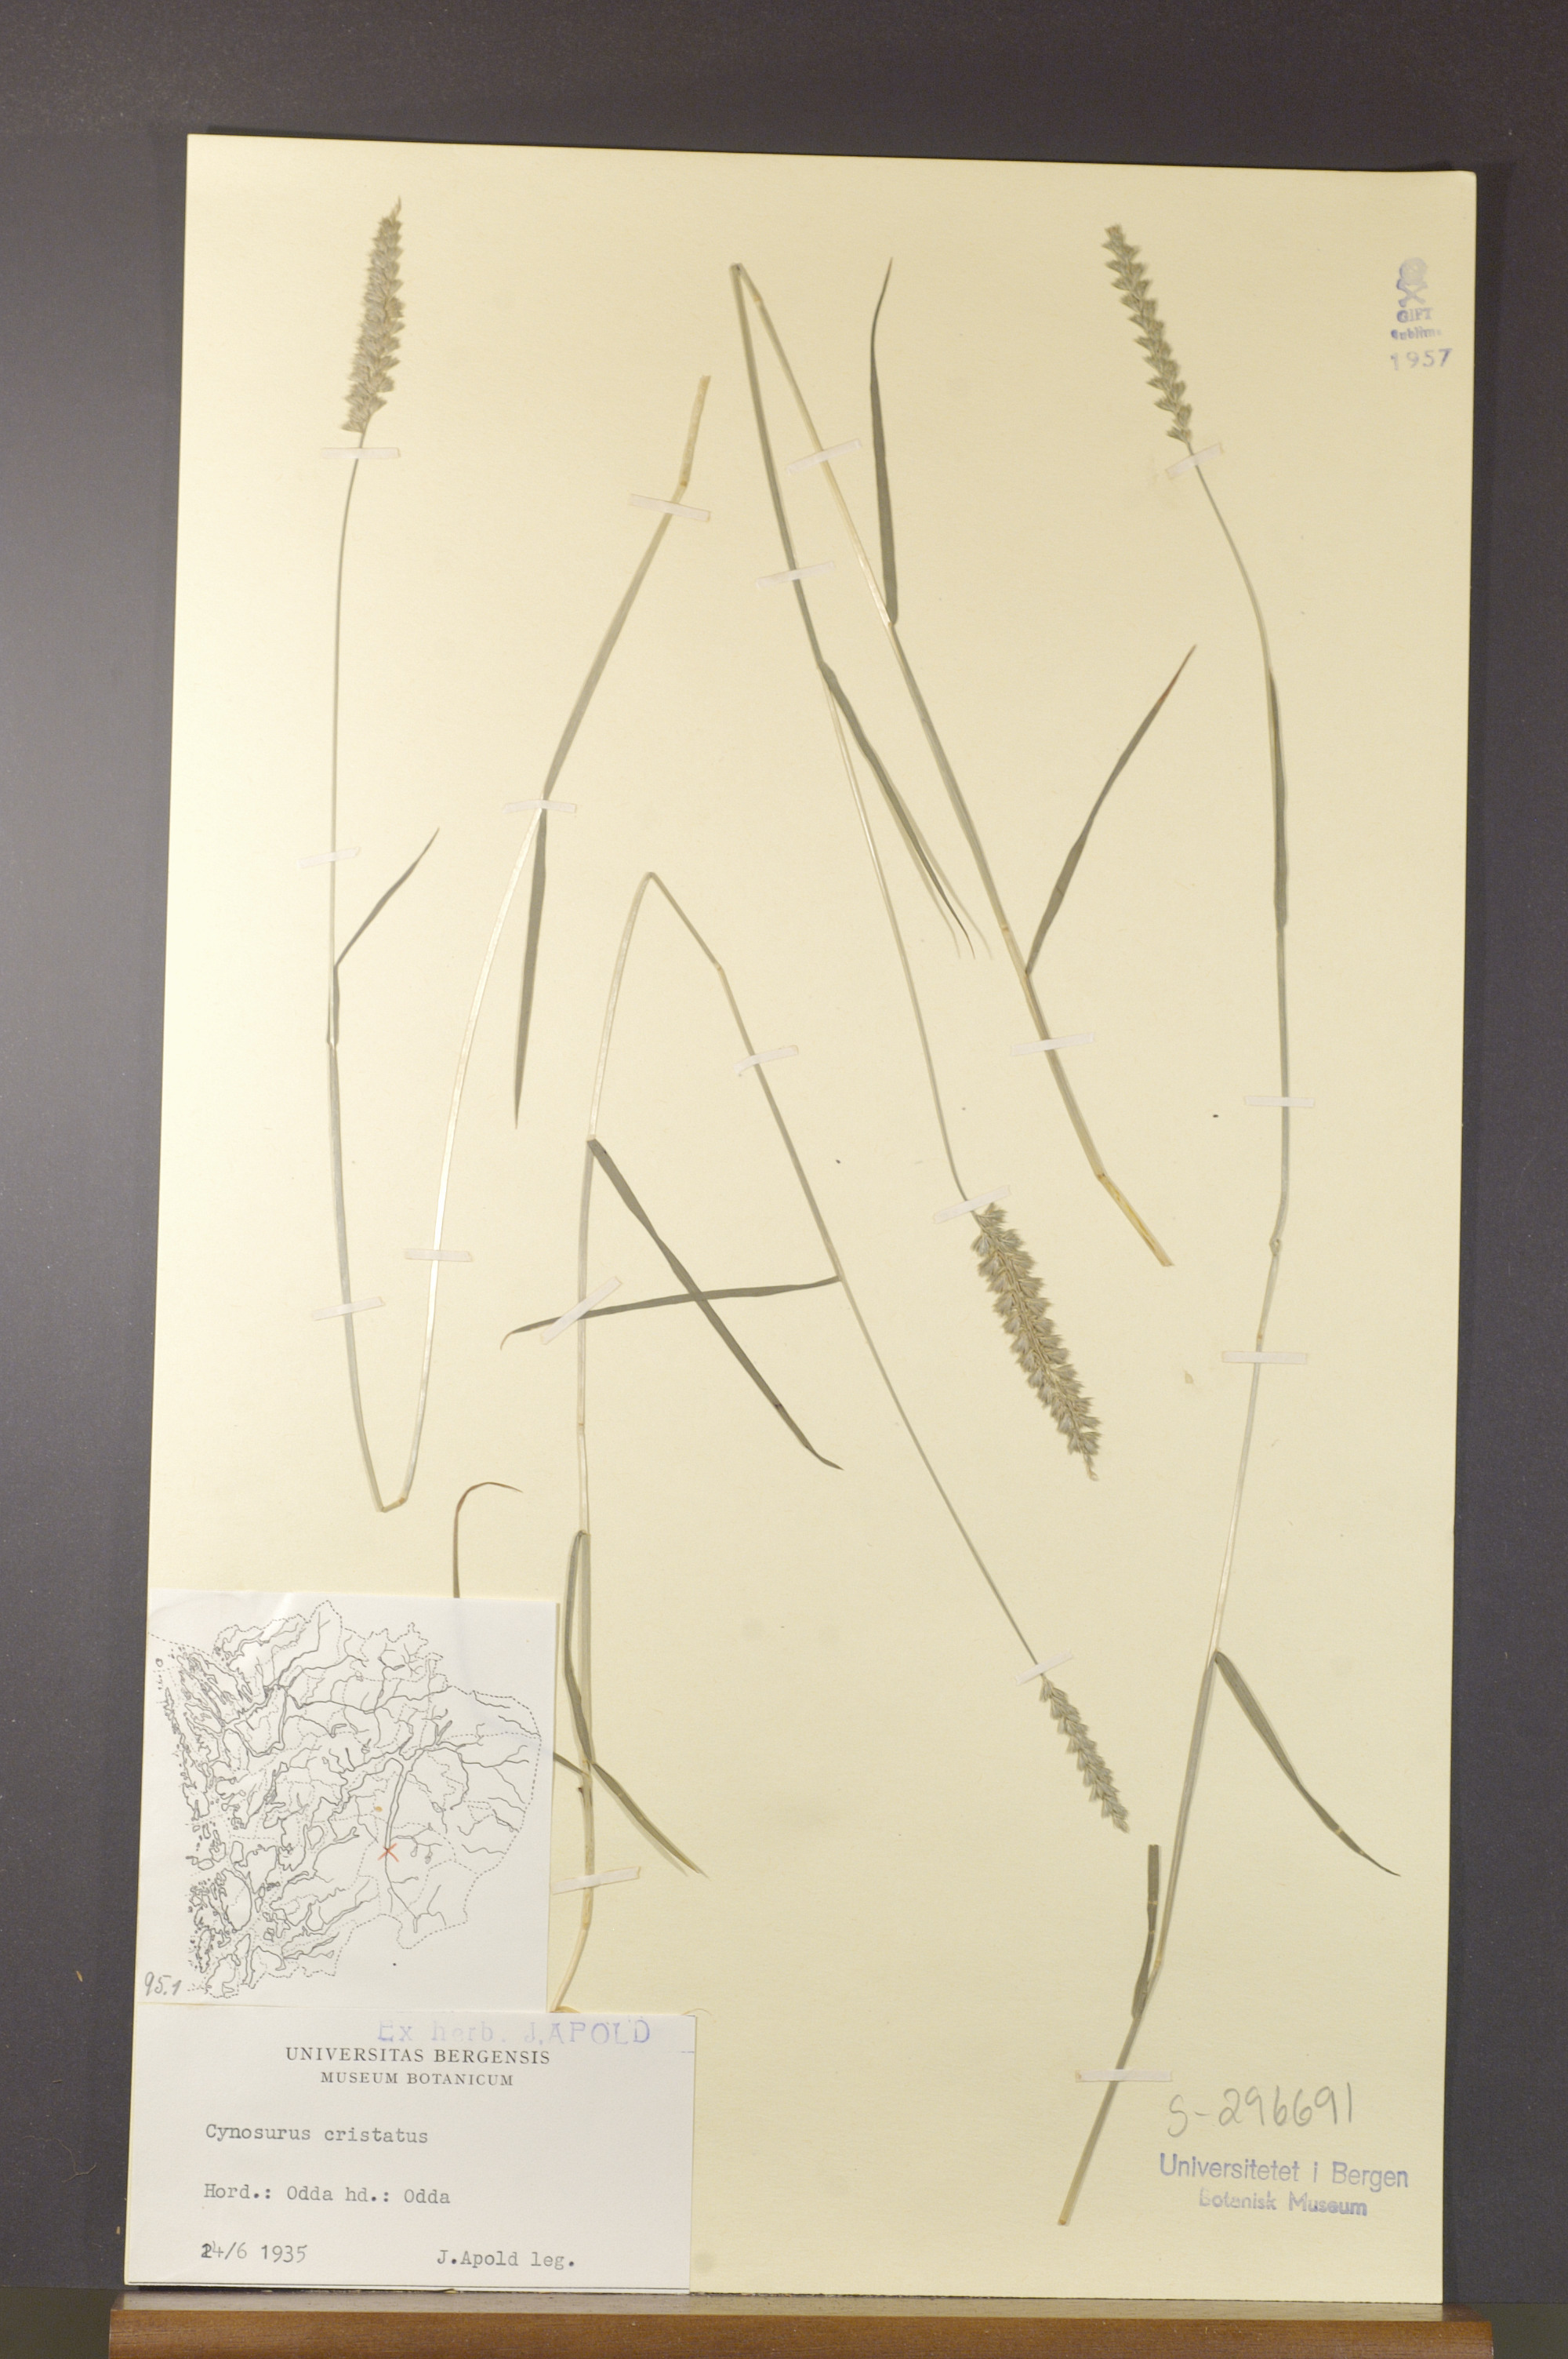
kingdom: Plantae
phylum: Tracheophyta
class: Liliopsida
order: Poales
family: Poaceae
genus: Cynosurus
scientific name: Cynosurus cristatus
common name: Crested dog's-tail
